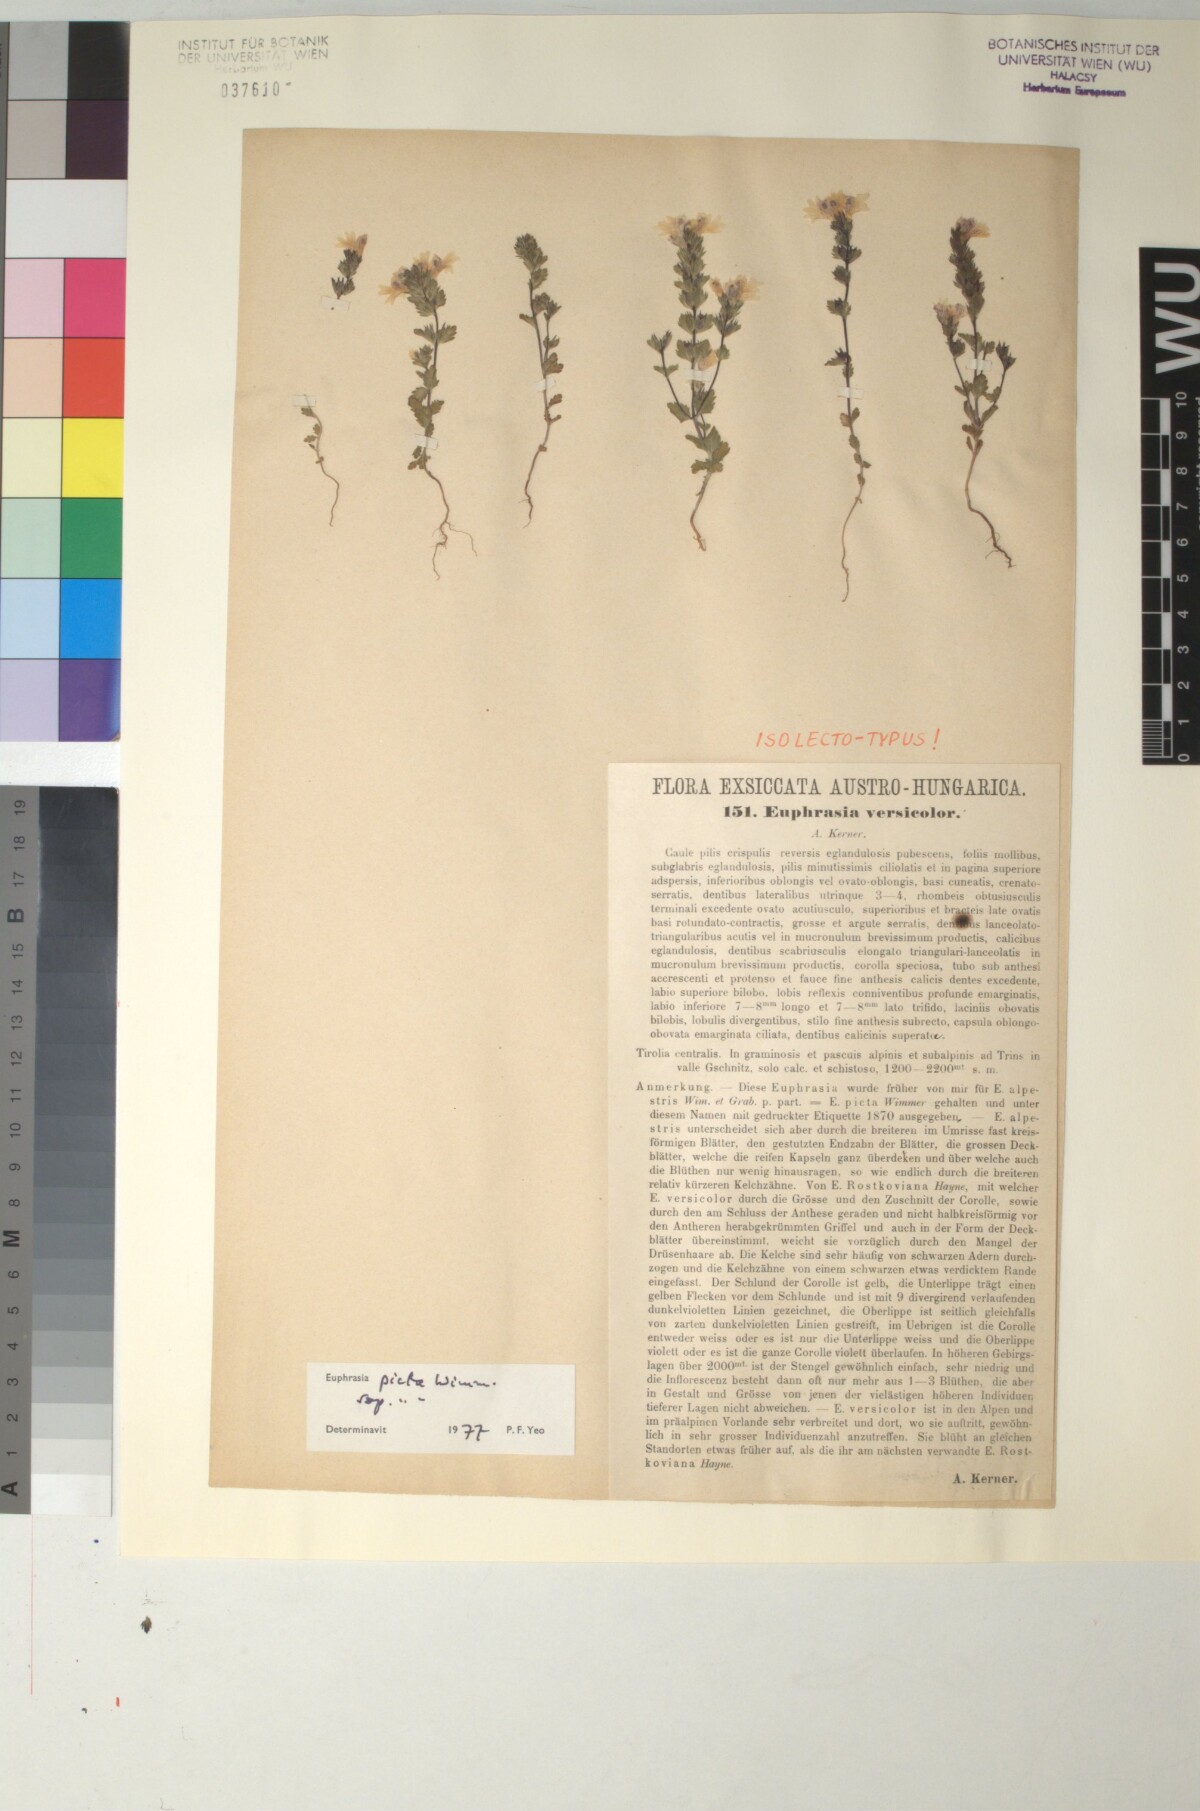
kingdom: Plantae
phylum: Tracheophyta
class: Magnoliopsida
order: Lamiales
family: Orobanchaceae
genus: Euphrasia
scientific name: Euphrasia picta
